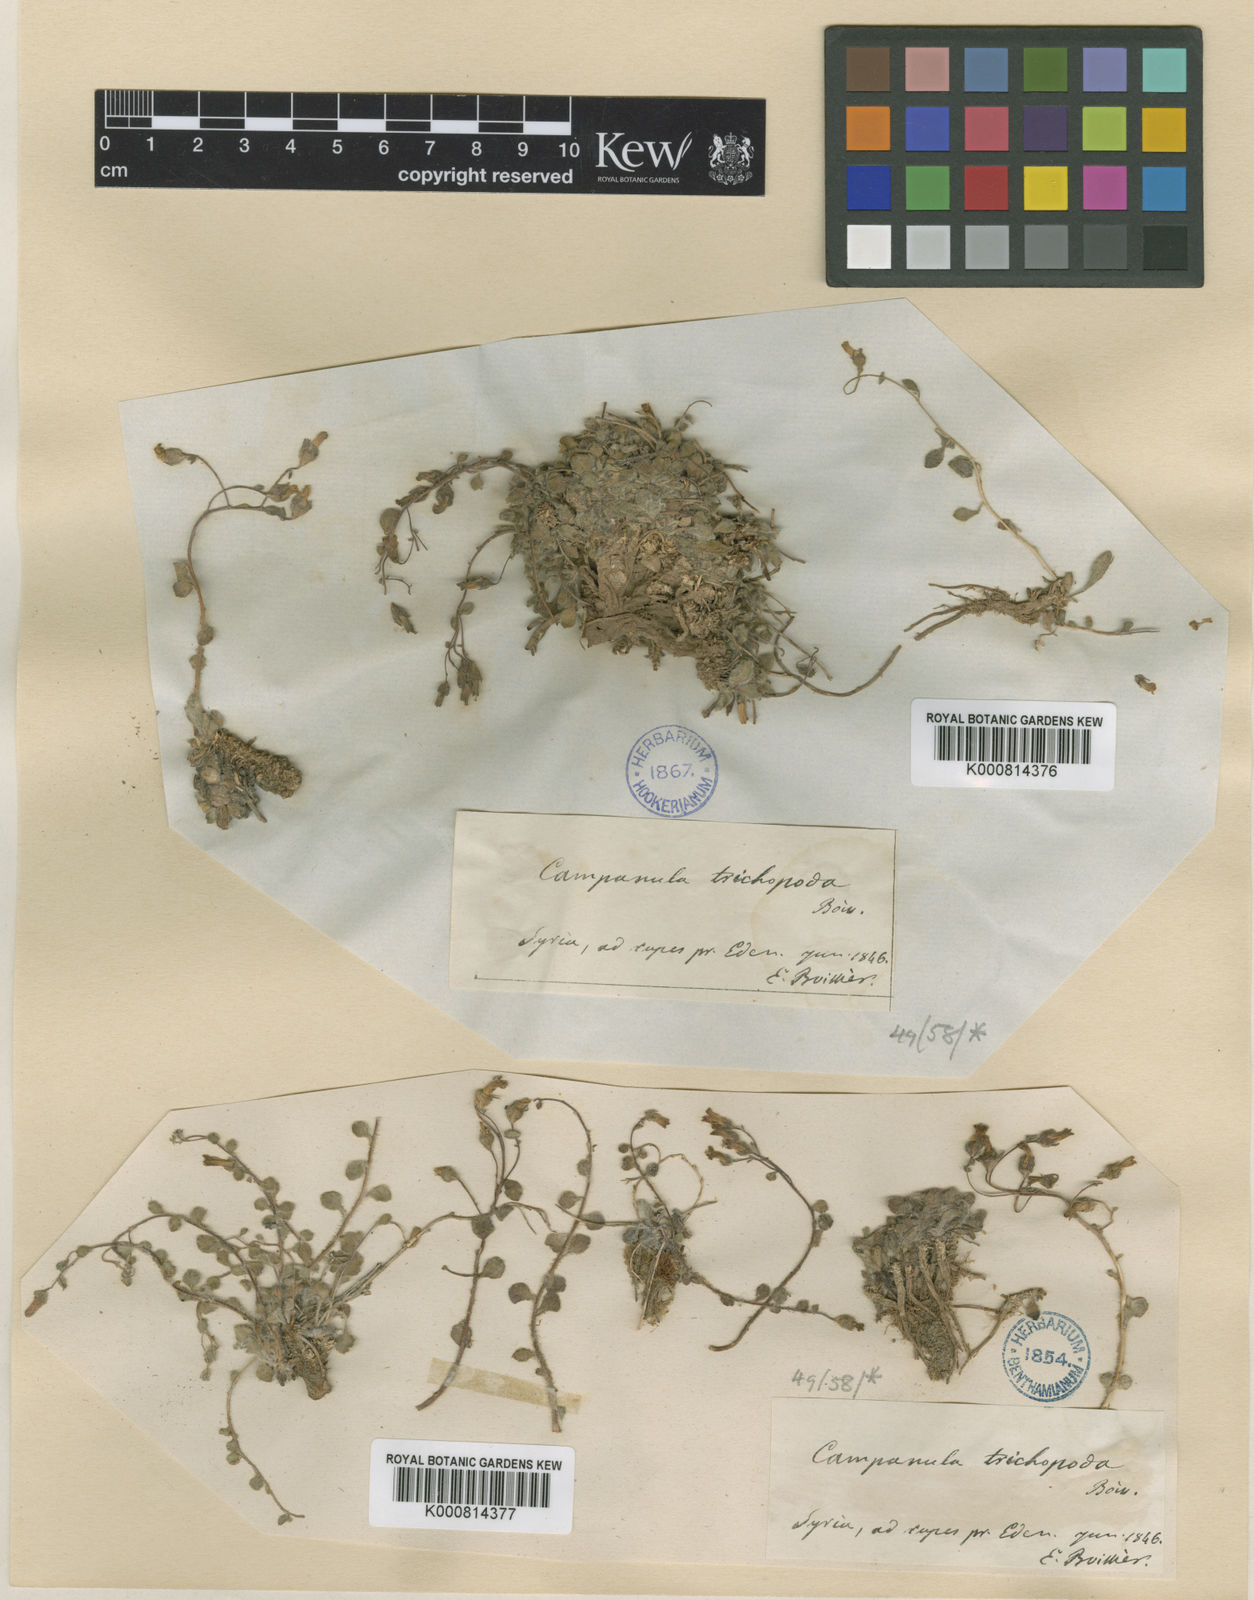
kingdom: Plantae
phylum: Tracheophyta
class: Magnoliopsida
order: Asterales
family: Campanulaceae
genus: Campanula
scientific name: Campanula trichopoda
